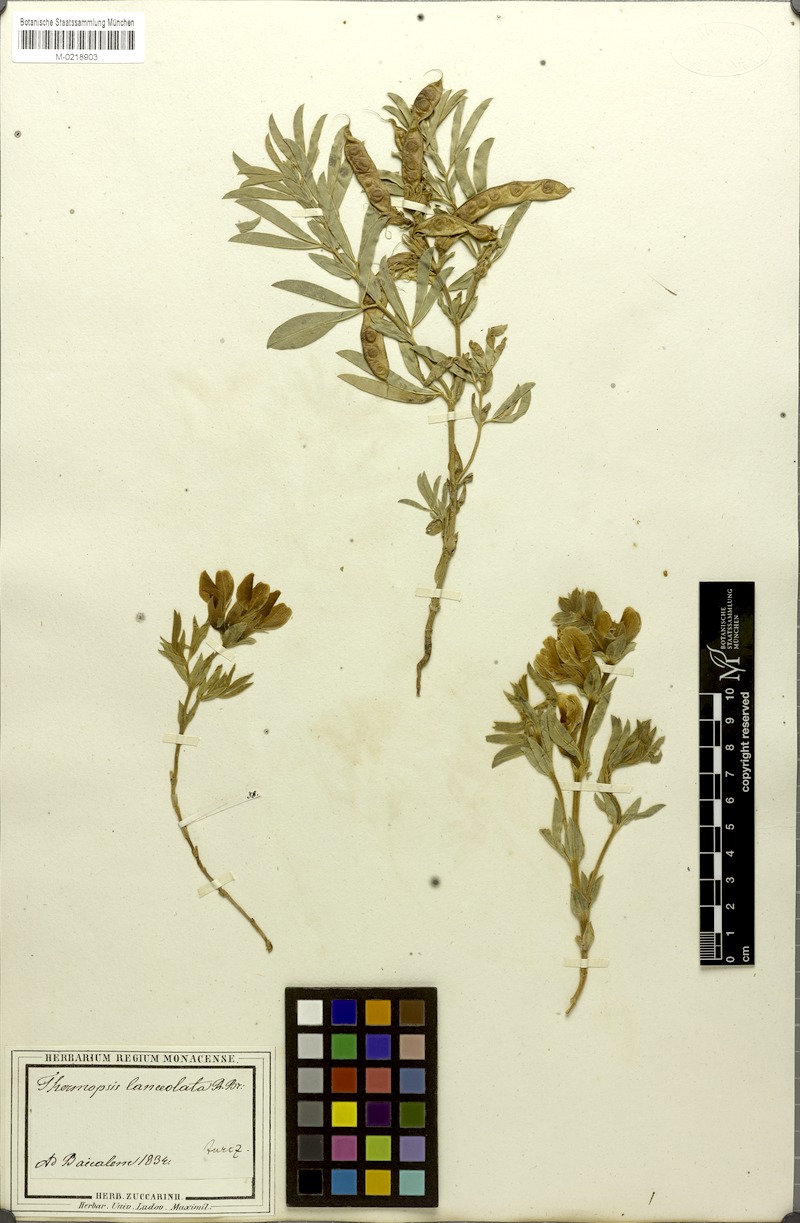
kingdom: Plantae
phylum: Tracheophyta
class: Magnoliopsida
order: Fabales
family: Fabaceae
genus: Thermopsis
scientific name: Thermopsis lanceolata
